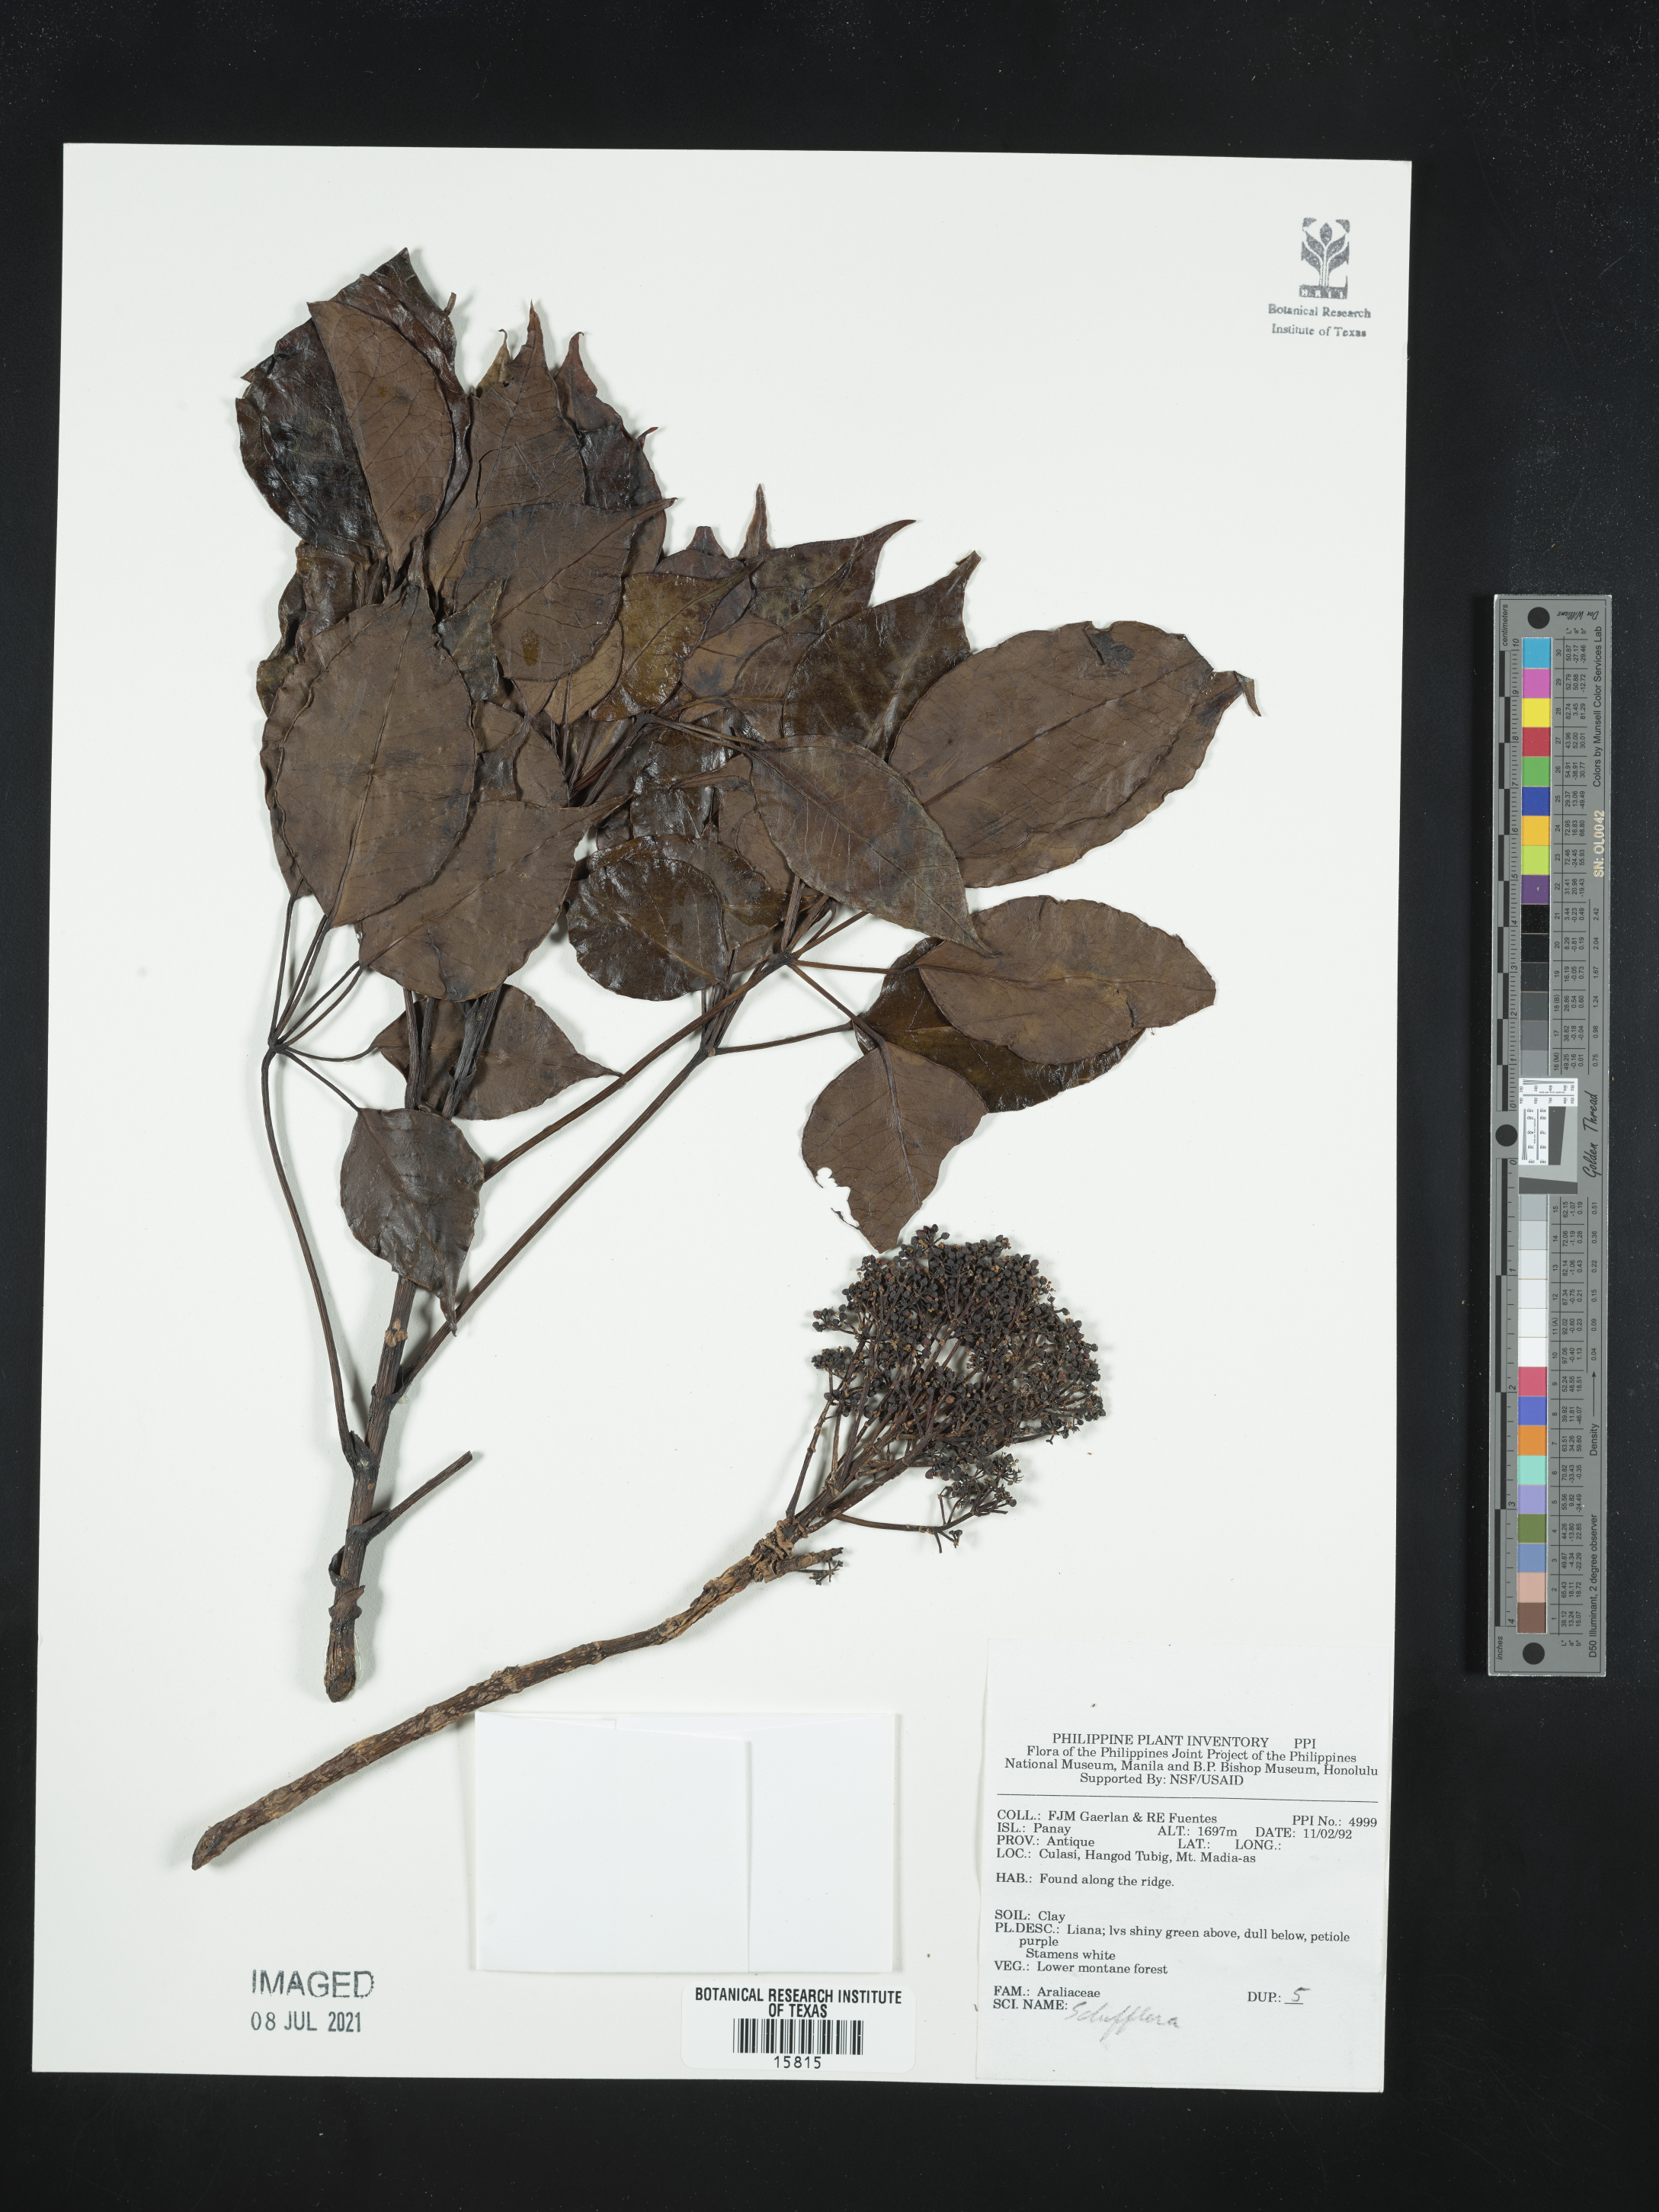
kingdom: Plantae
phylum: Tracheophyta
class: Magnoliopsida
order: Apiales
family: Araliaceae
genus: Schefflera
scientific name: Schefflera
